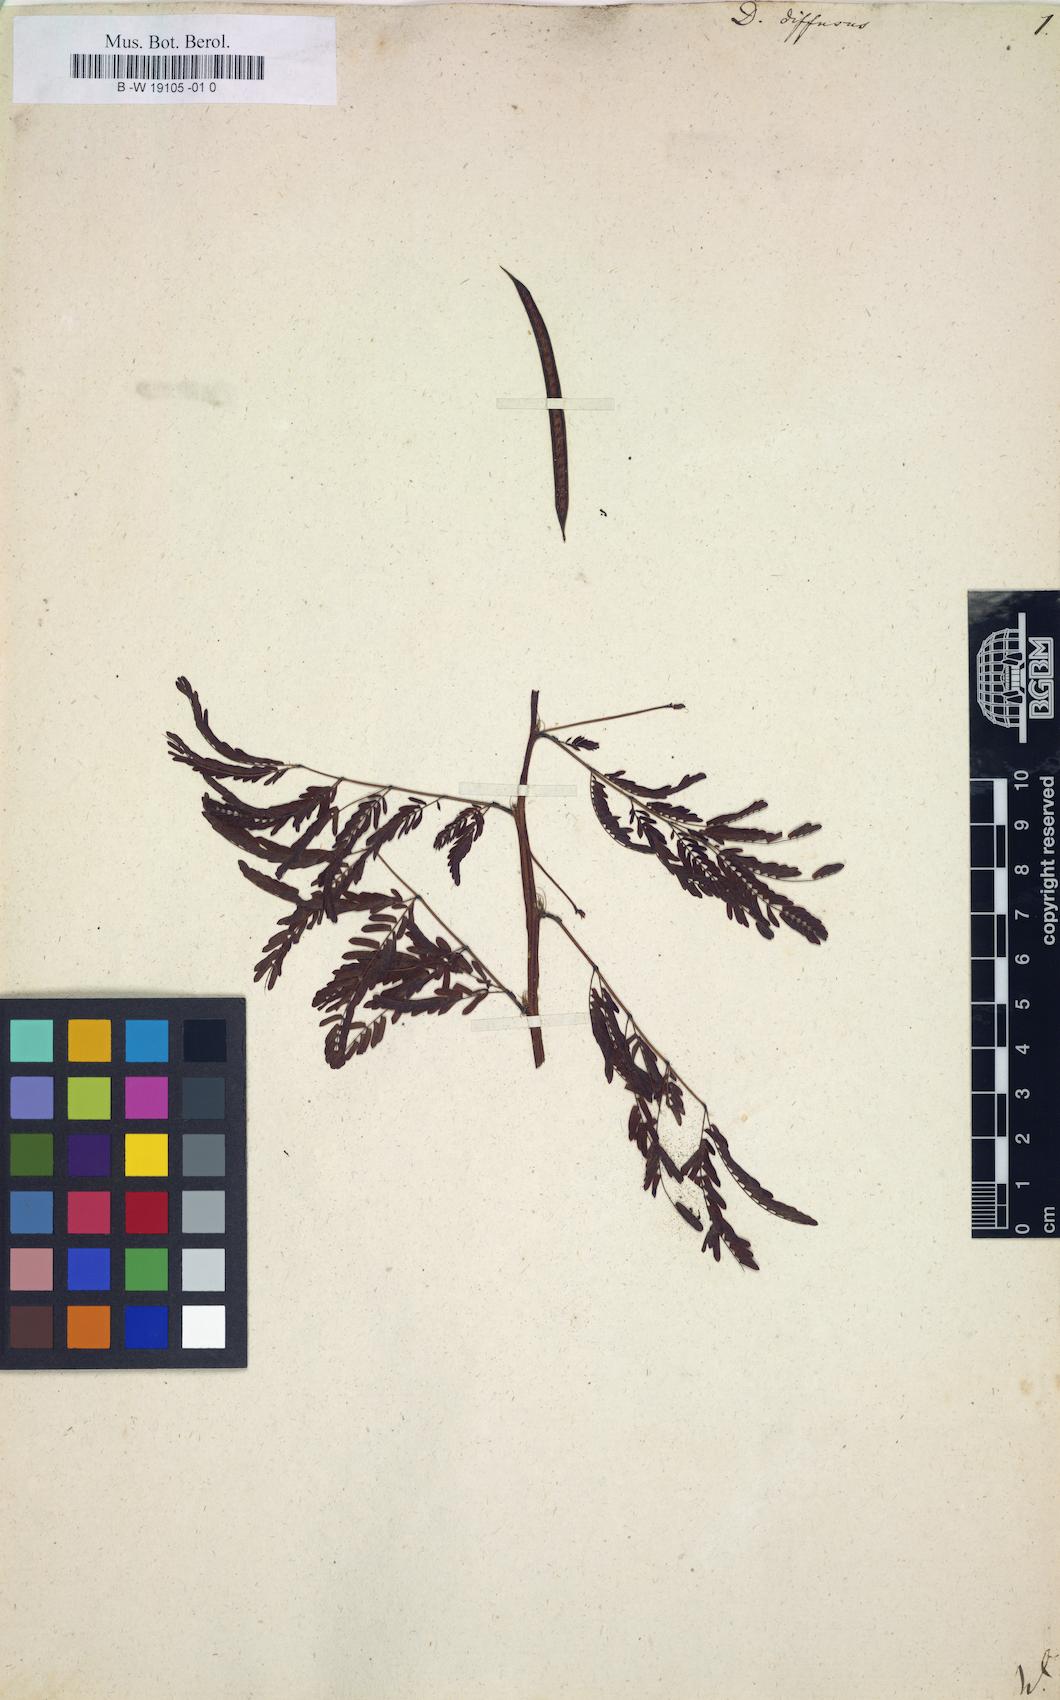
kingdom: Plantae
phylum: Tracheophyta
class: Magnoliopsida
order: Fabales
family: Fabaceae
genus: Desmanthus
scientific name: Desmanthus pernambucanus
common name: Pigeon bundleflower
